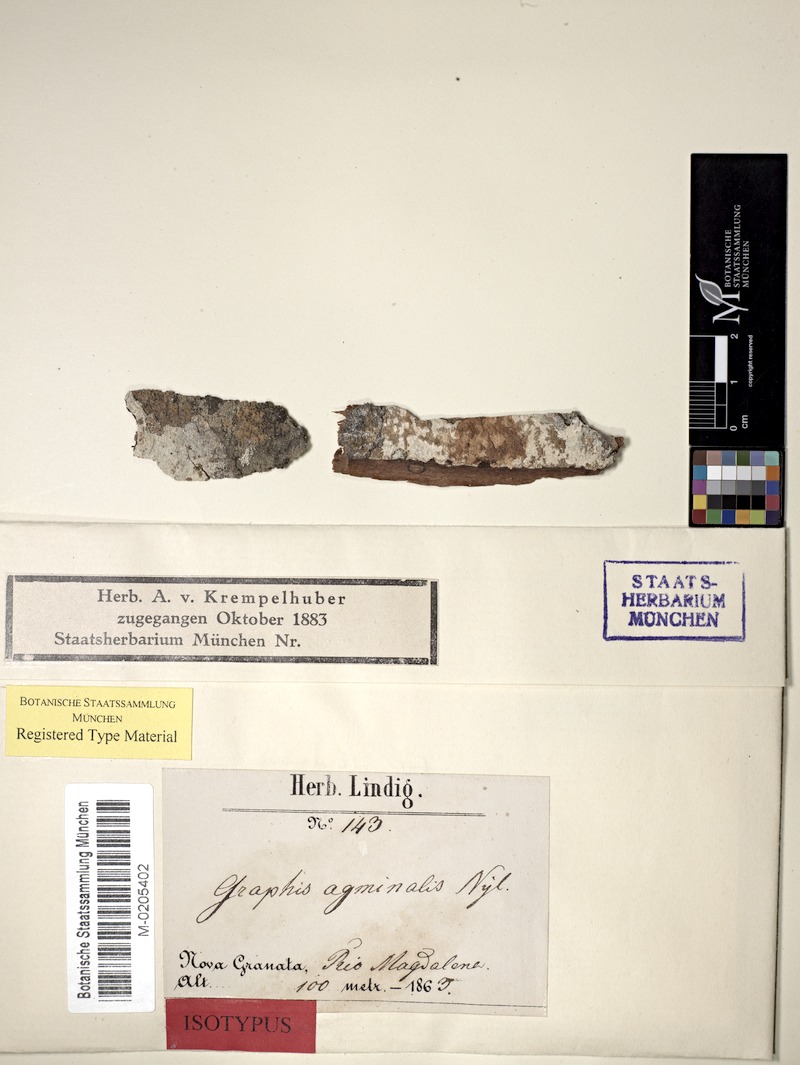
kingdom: Fungi
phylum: Ascomycota
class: Lecanoromycetes
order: Ostropales
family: Graphidaceae
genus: Jocatoa
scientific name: Jocatoa agminalis
